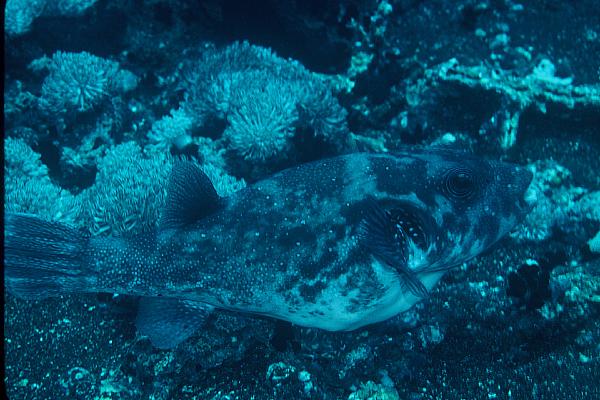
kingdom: Animalia
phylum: Chordata
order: Tetraodontiformes
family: Tetraodontidae
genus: Arothron
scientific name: Arothron caeruleopunctatus
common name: Blue-spotted puffer
